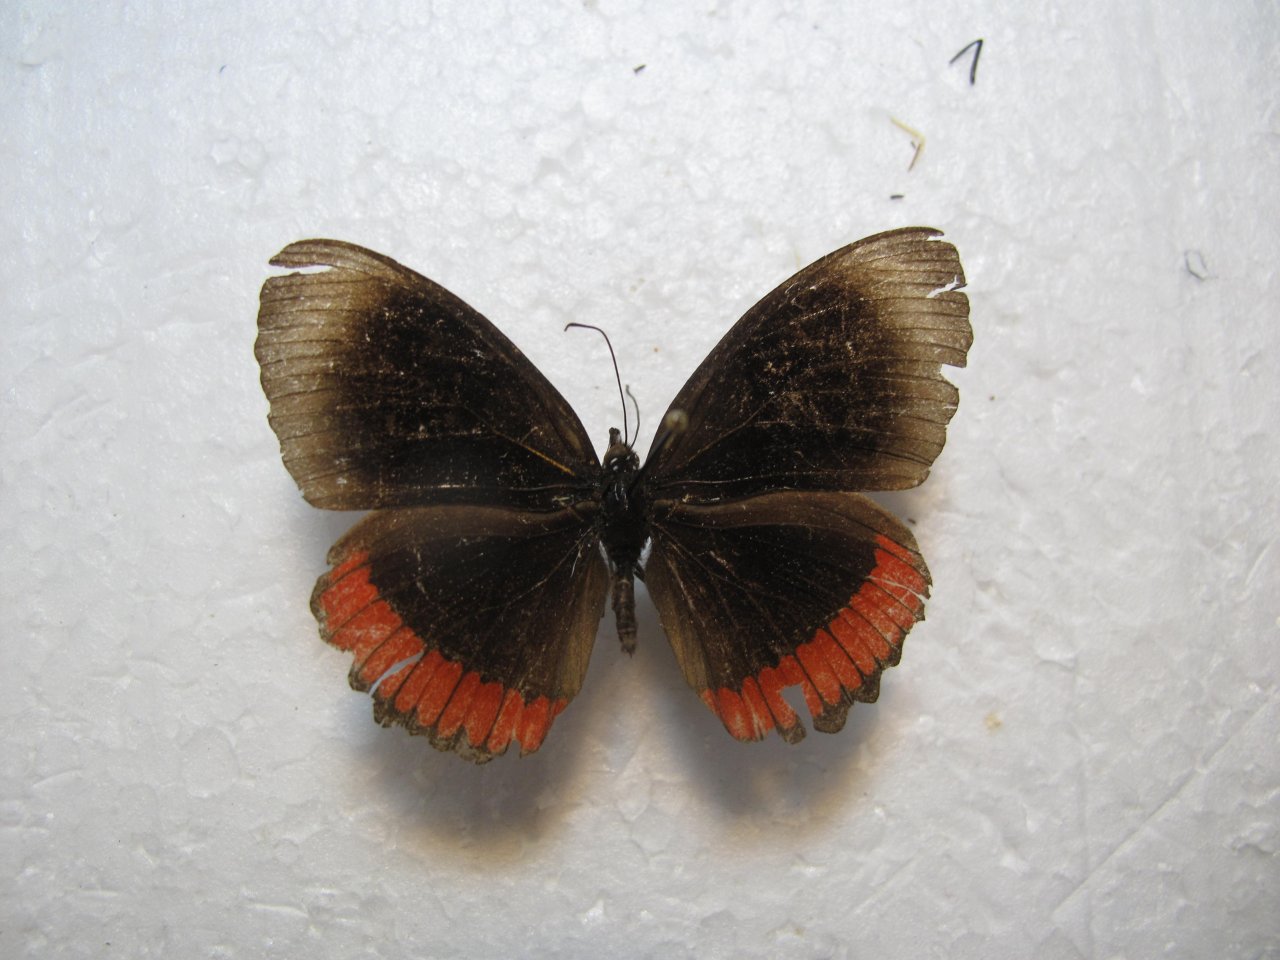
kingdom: Animalia
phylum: Arthropoda
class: Insecta
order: Lepidoptera
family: Sesiidae
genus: Sesia
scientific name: Sesia Biblis hyperia
